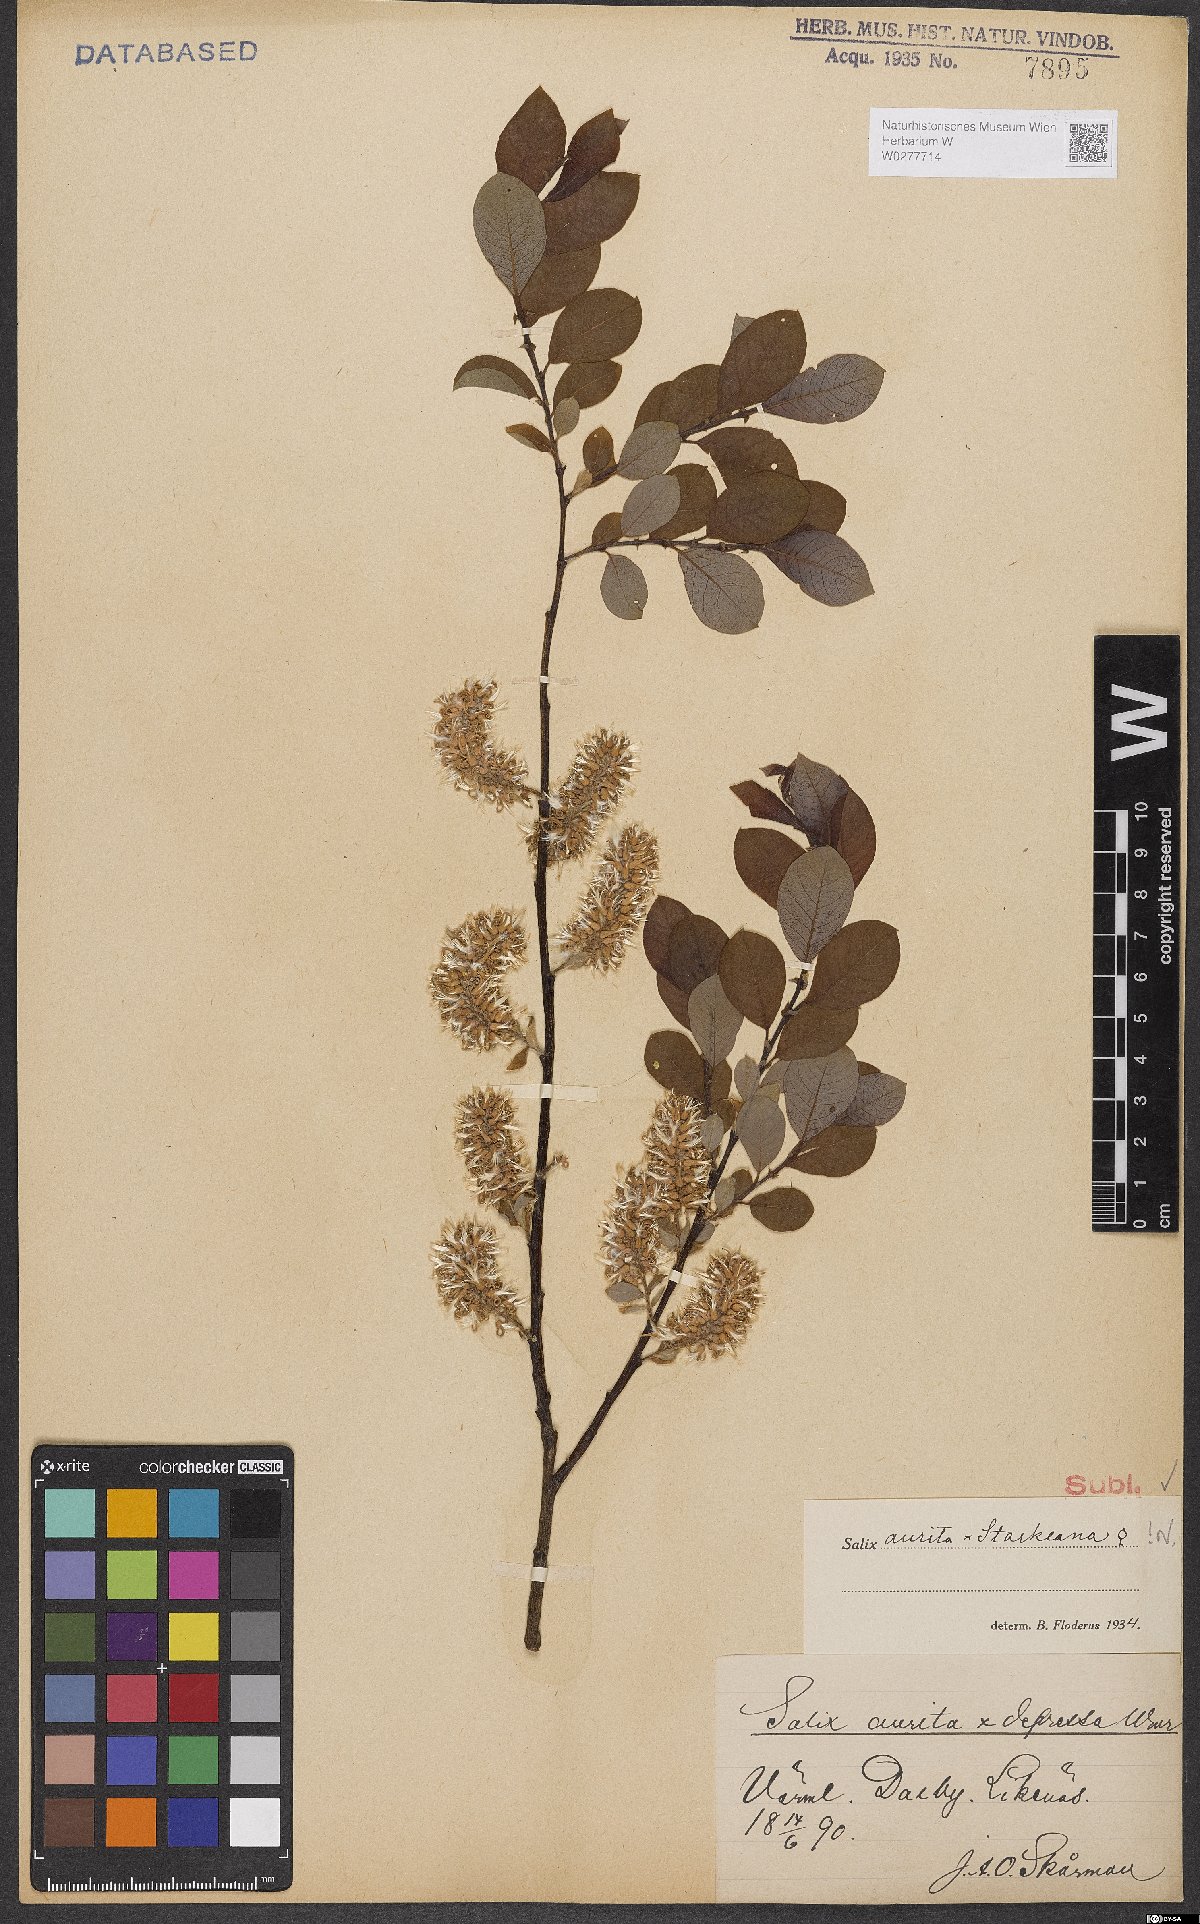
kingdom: Plantae
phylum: Tracheophyta
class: Magnoliopsida
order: Malpighiales
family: Salicaceae
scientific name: Salicaceae
